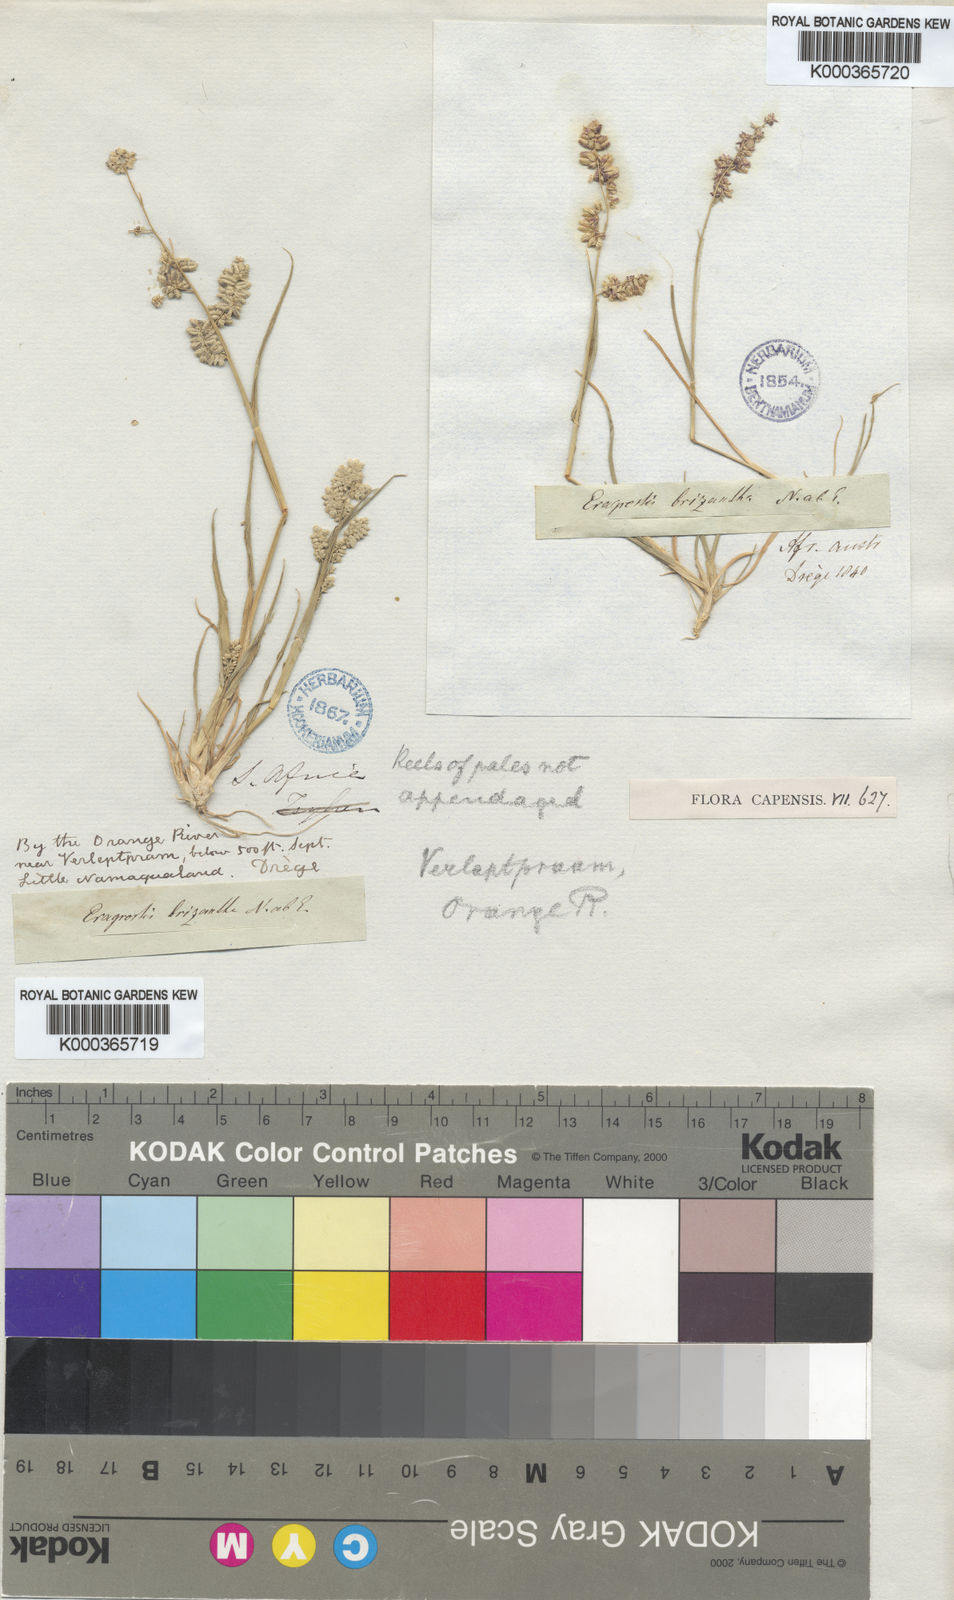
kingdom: Plantae
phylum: Tracheophyta
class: Liliopsida
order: Poales
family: Poaceae
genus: Eragrostis
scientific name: Eragrostis brizantha
